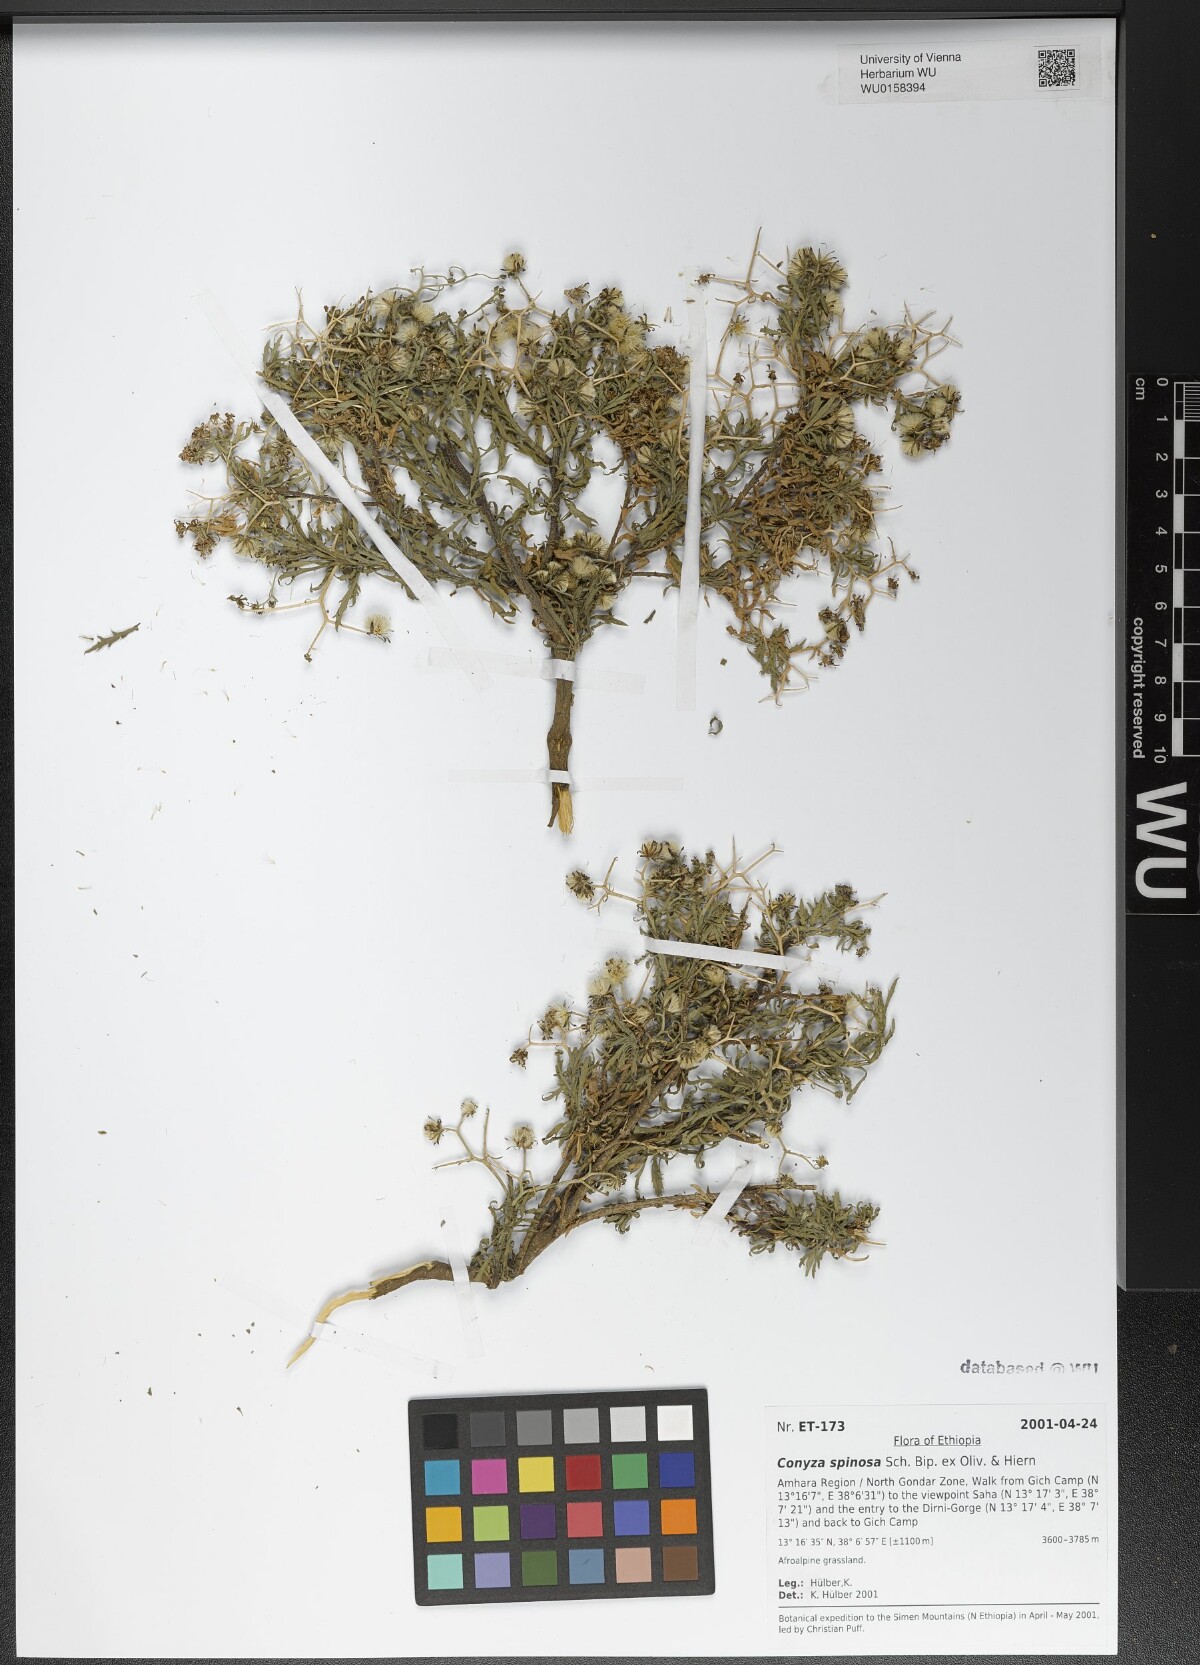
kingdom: Plantae
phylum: Tracheophyta
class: Magnoliopsida
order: Asterales
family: Asteraceae
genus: Conyza
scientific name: Conyza spinosa
